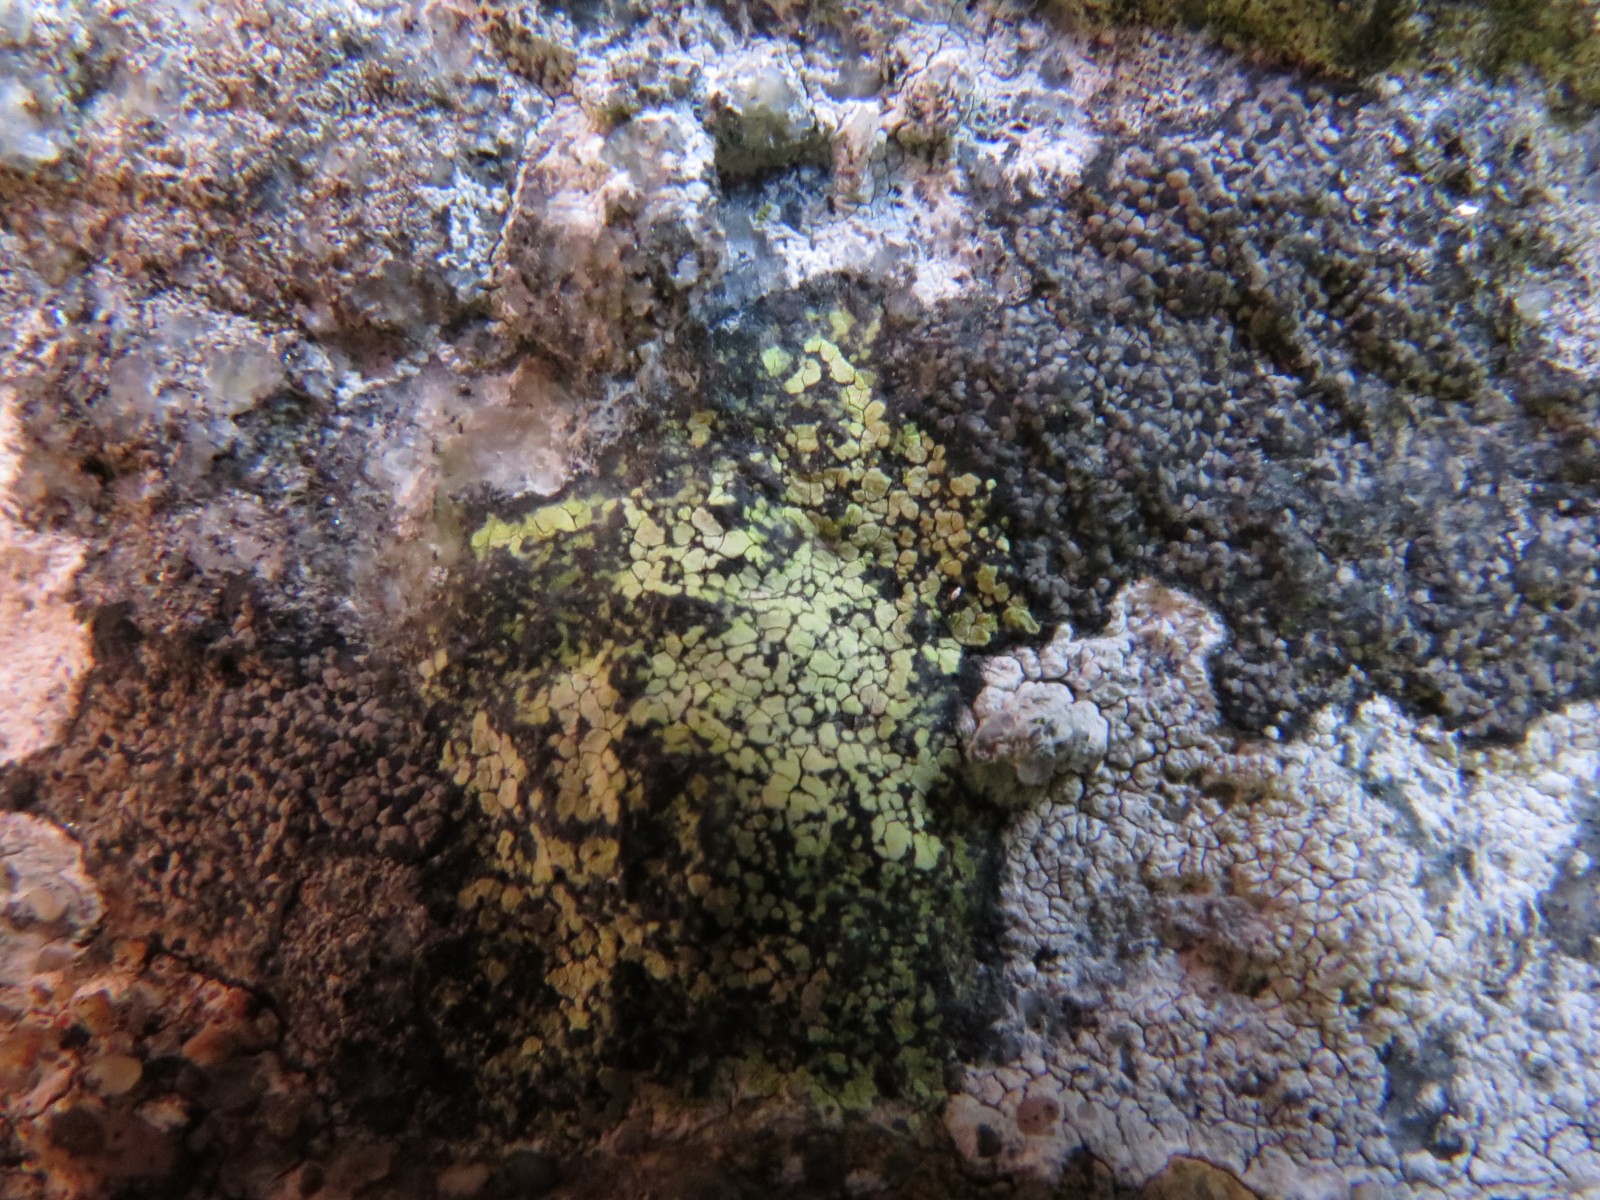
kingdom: Fungi
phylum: Ascomycota
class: Lecanoromycetes
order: Rhizocarpales
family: Rhizocarpaceae
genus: Rhizocarpon
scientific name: Rhizocarpon geographicum
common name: gulgrøn landkortlav
